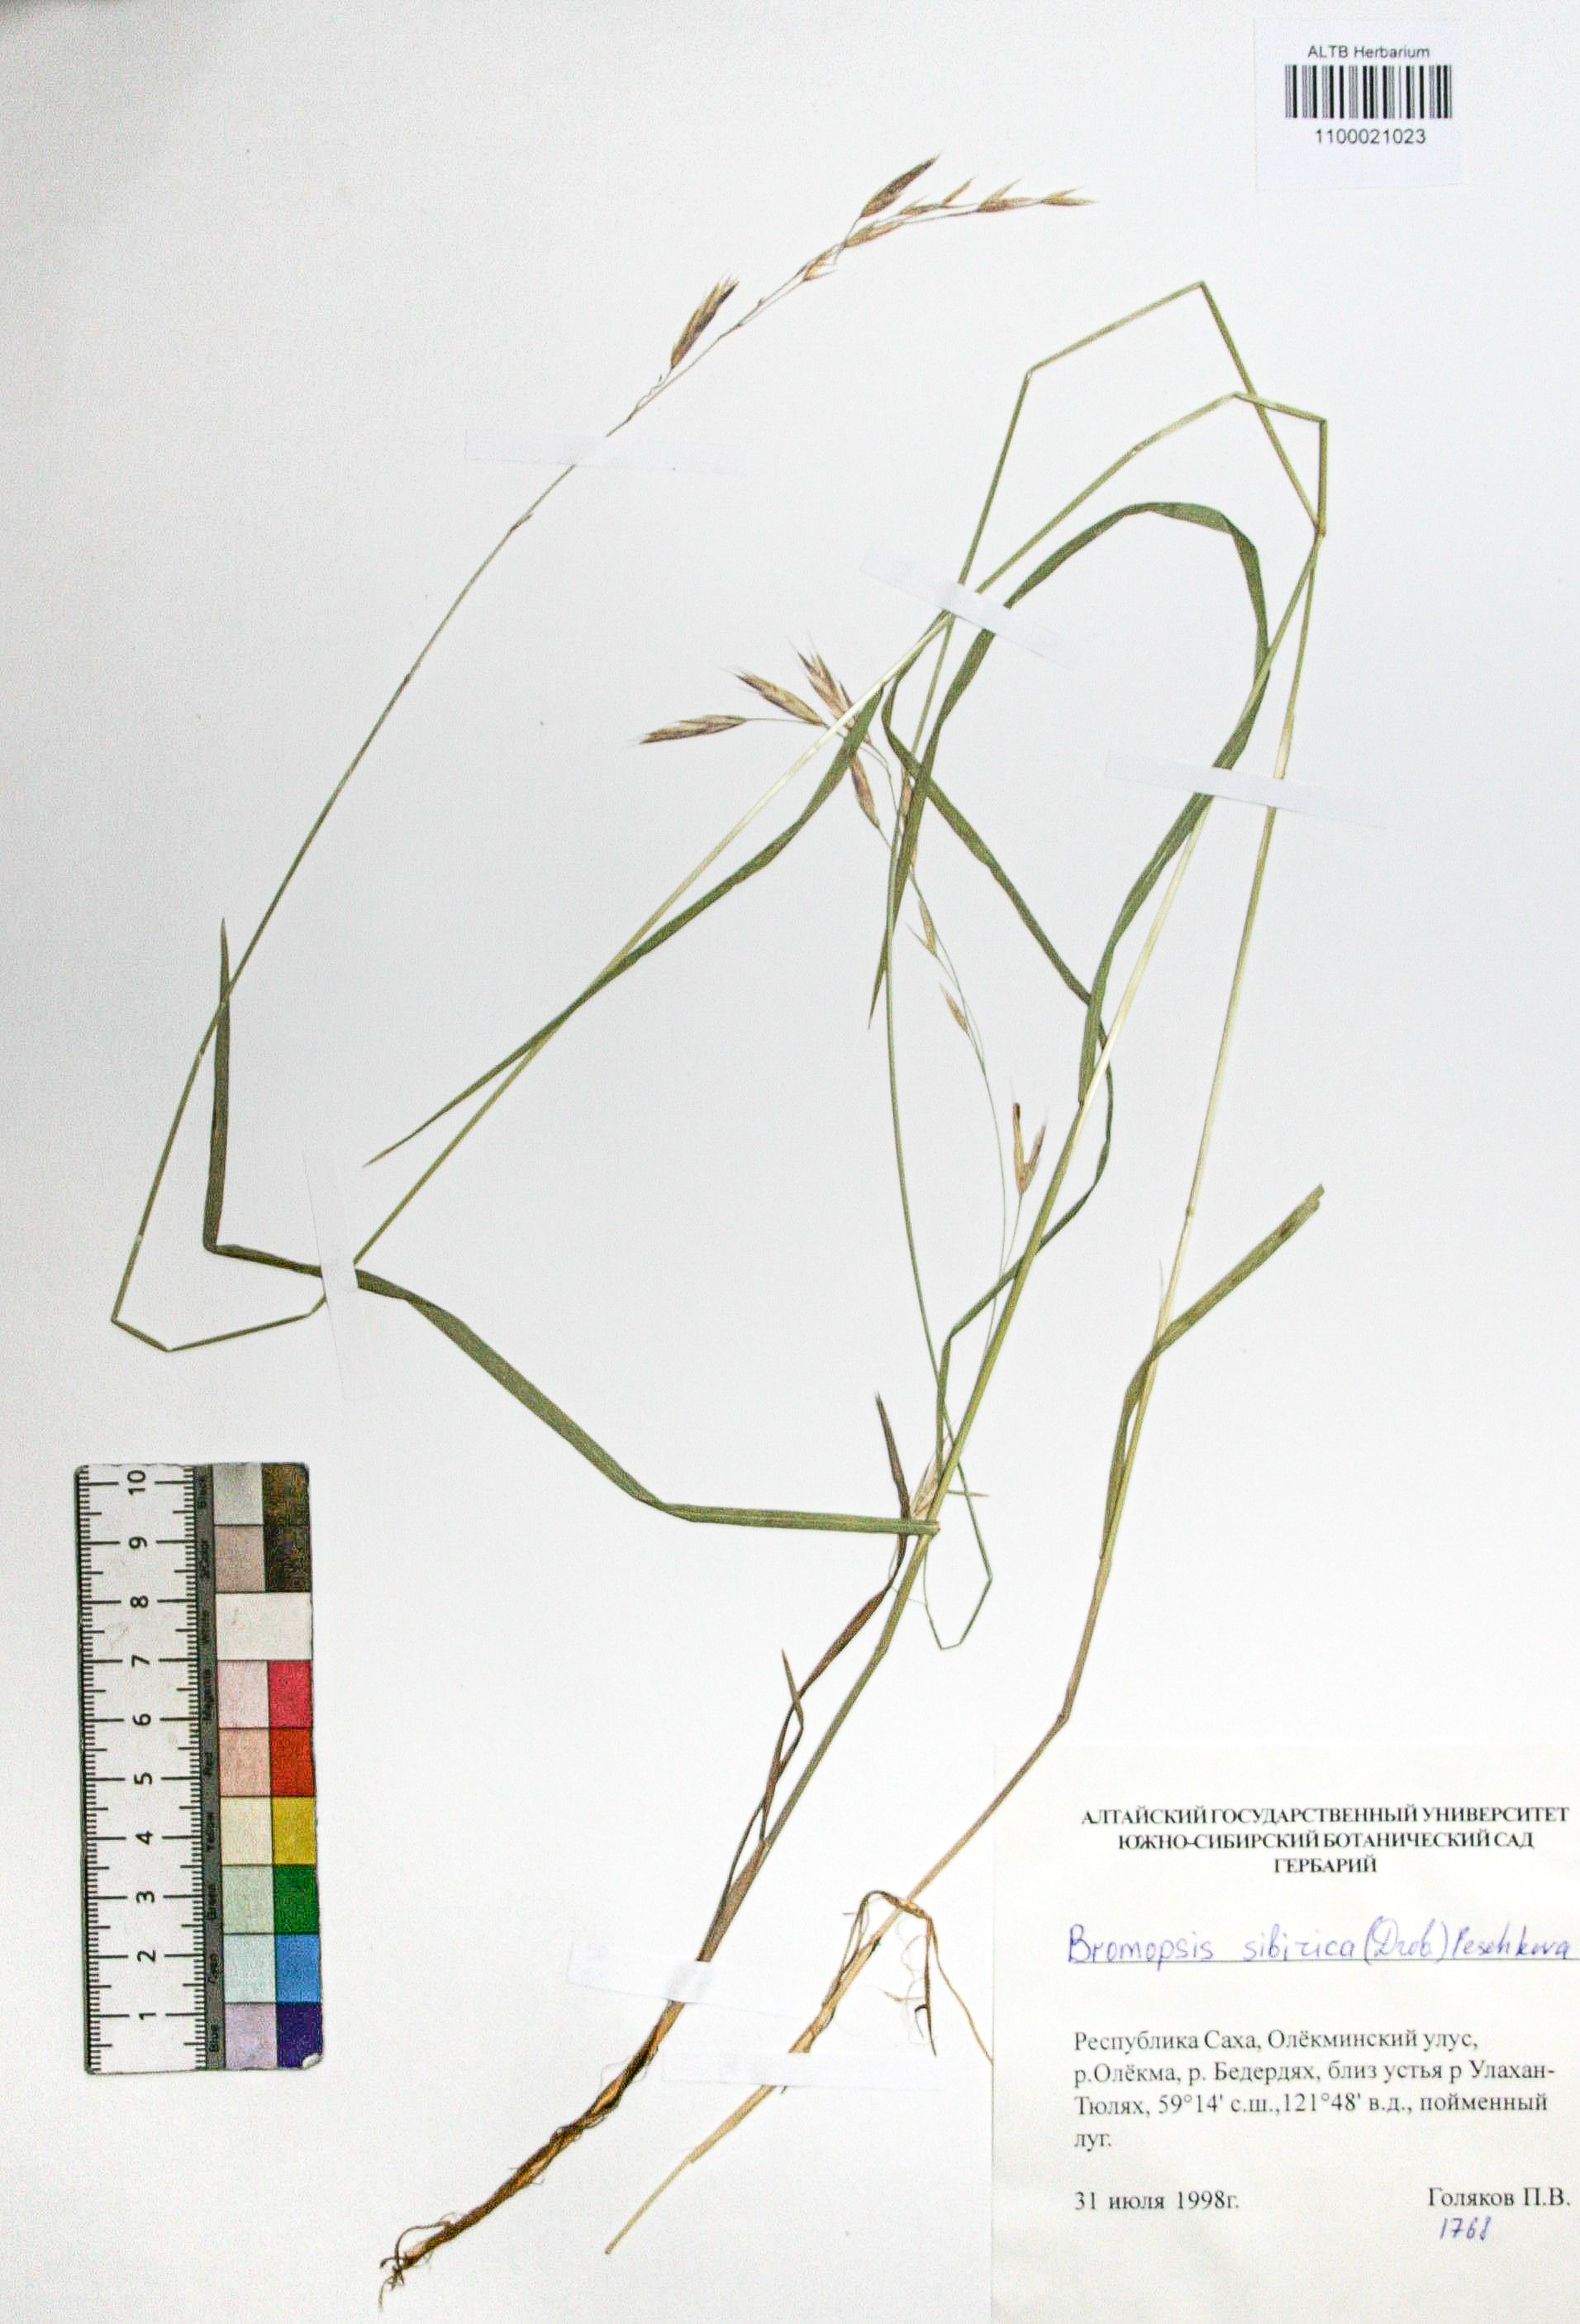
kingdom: Plantae
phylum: Tracheophyta
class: Liliopsida
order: Poales
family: Poaceae
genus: Bromus
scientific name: Bromus pumpellianus
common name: Pumpelly's brome
